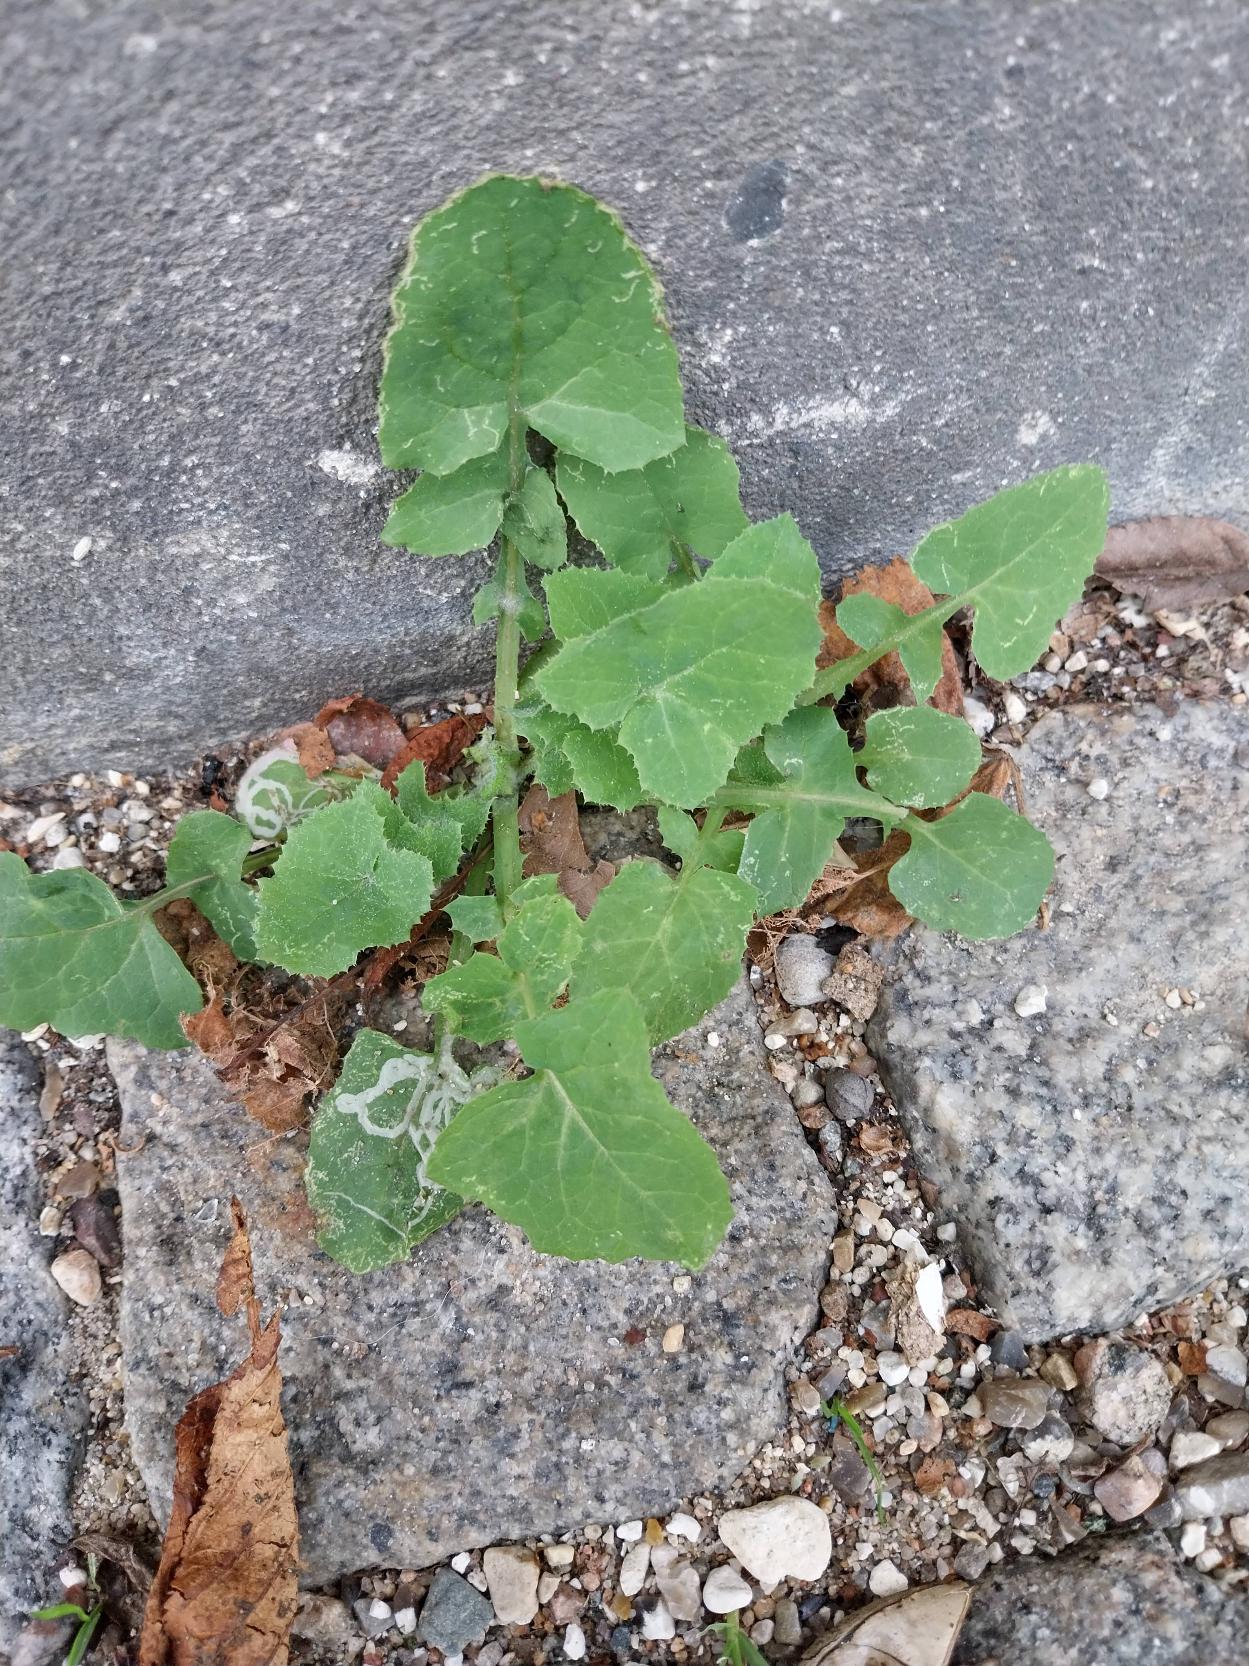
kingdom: Plantae
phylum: Tracheophyta
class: Magnoliopsida
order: Asterales
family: Asteraceae
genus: Sonchus
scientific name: Sonchus oleraceus
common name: Almindelig svinemælk
